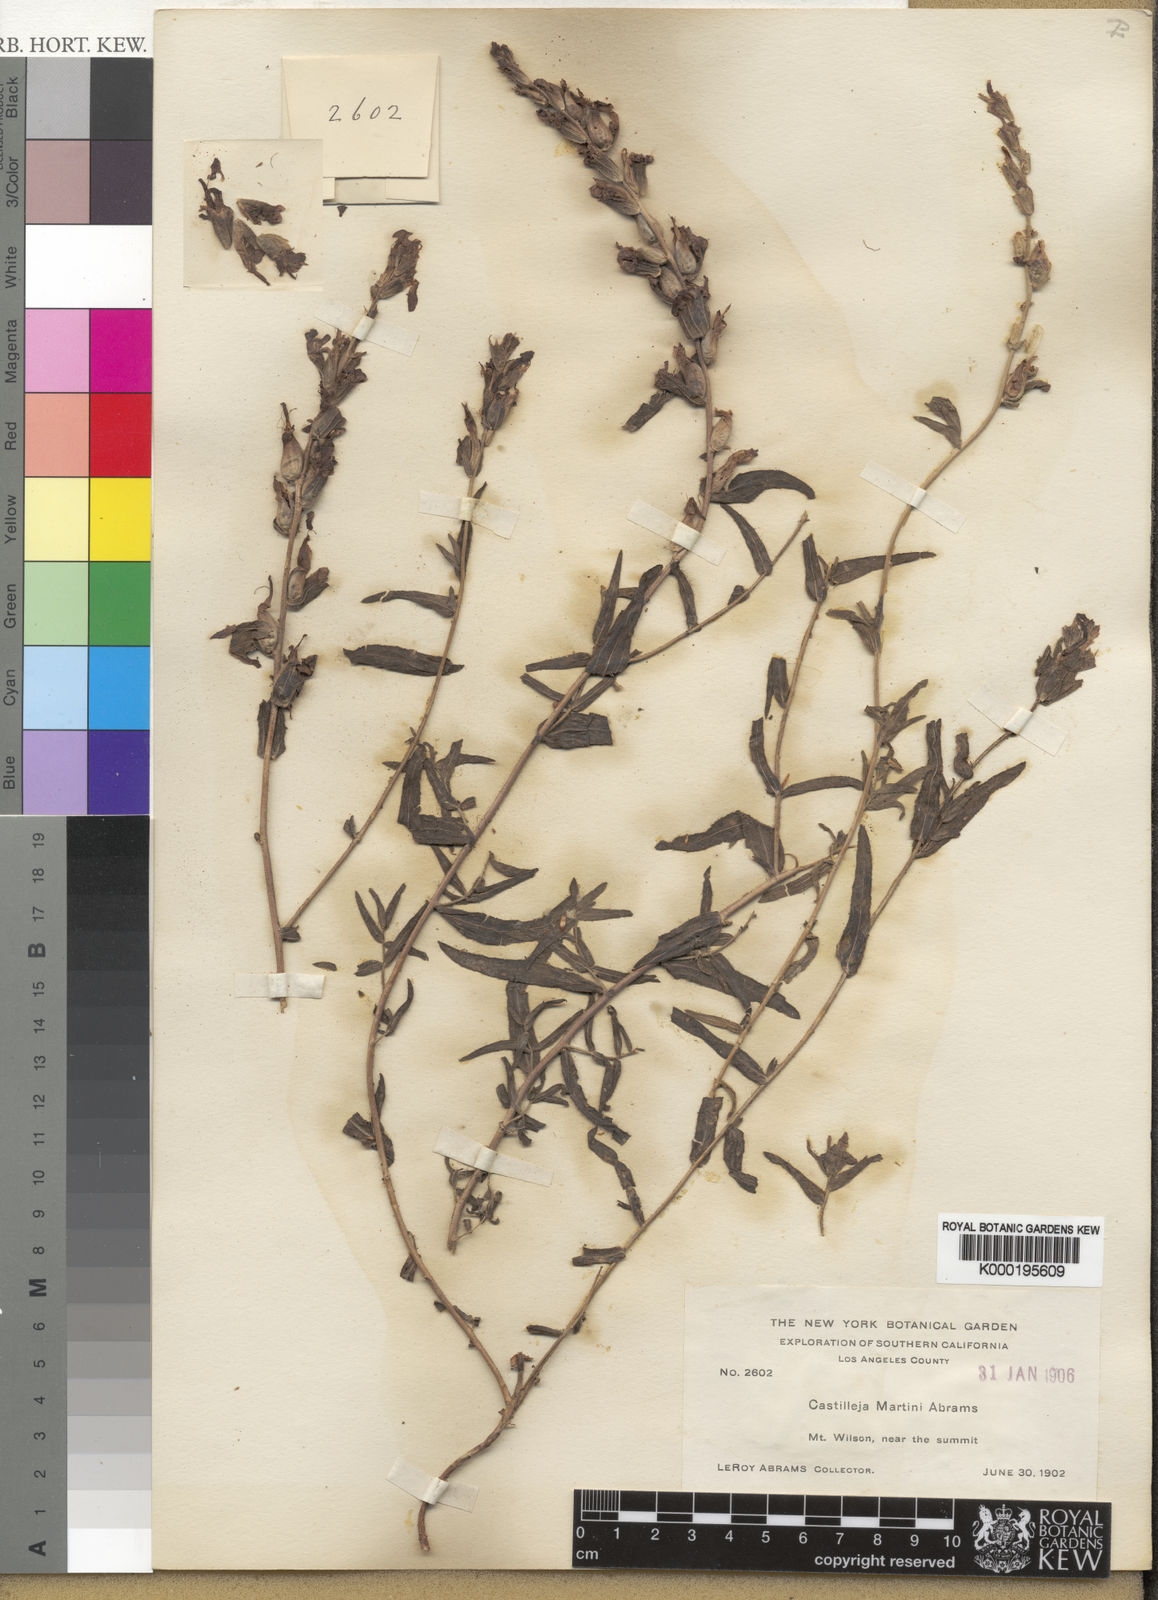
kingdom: Plantae
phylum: Tracheophyta
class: Magnoliopsida
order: Lamiales
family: Orobanchaceae
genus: Castilleja
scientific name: Castilleja martini
